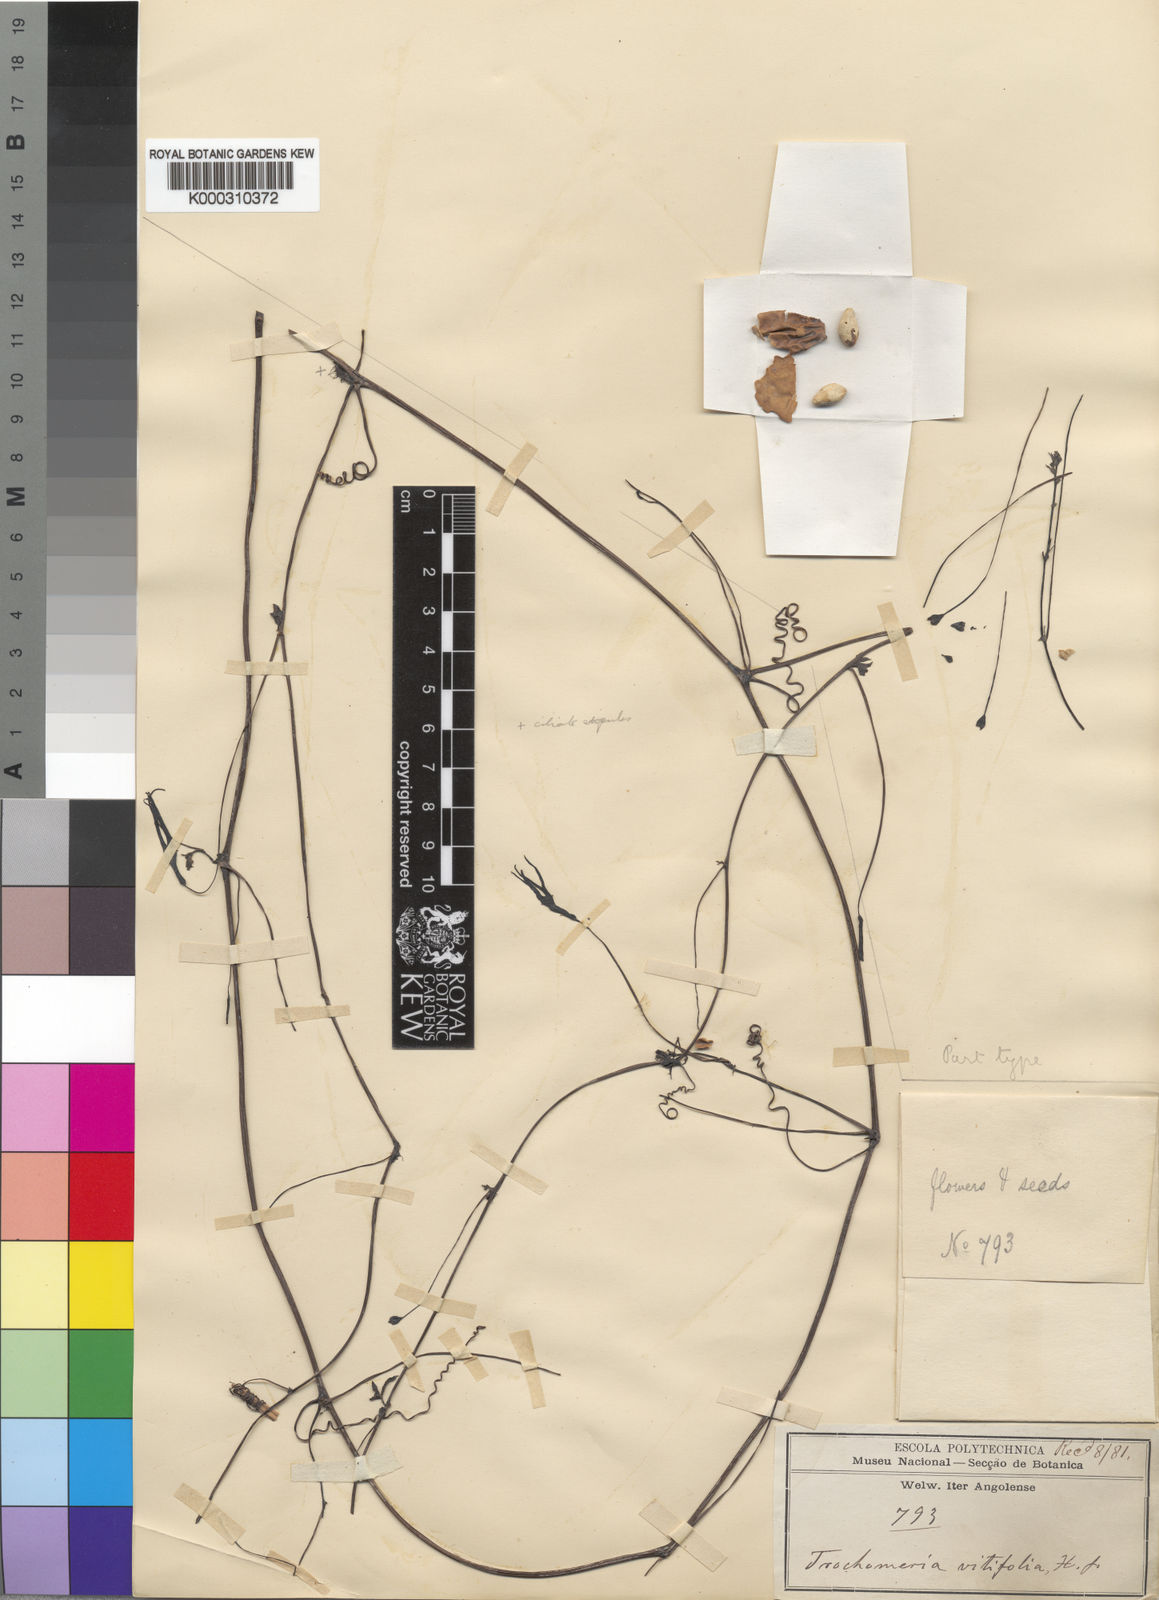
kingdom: Plantae
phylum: Tracheophyta
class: Magnoliopsida
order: Cucurbitales
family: Cucurbitaceae
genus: Trochomeria
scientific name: Trochomeria
